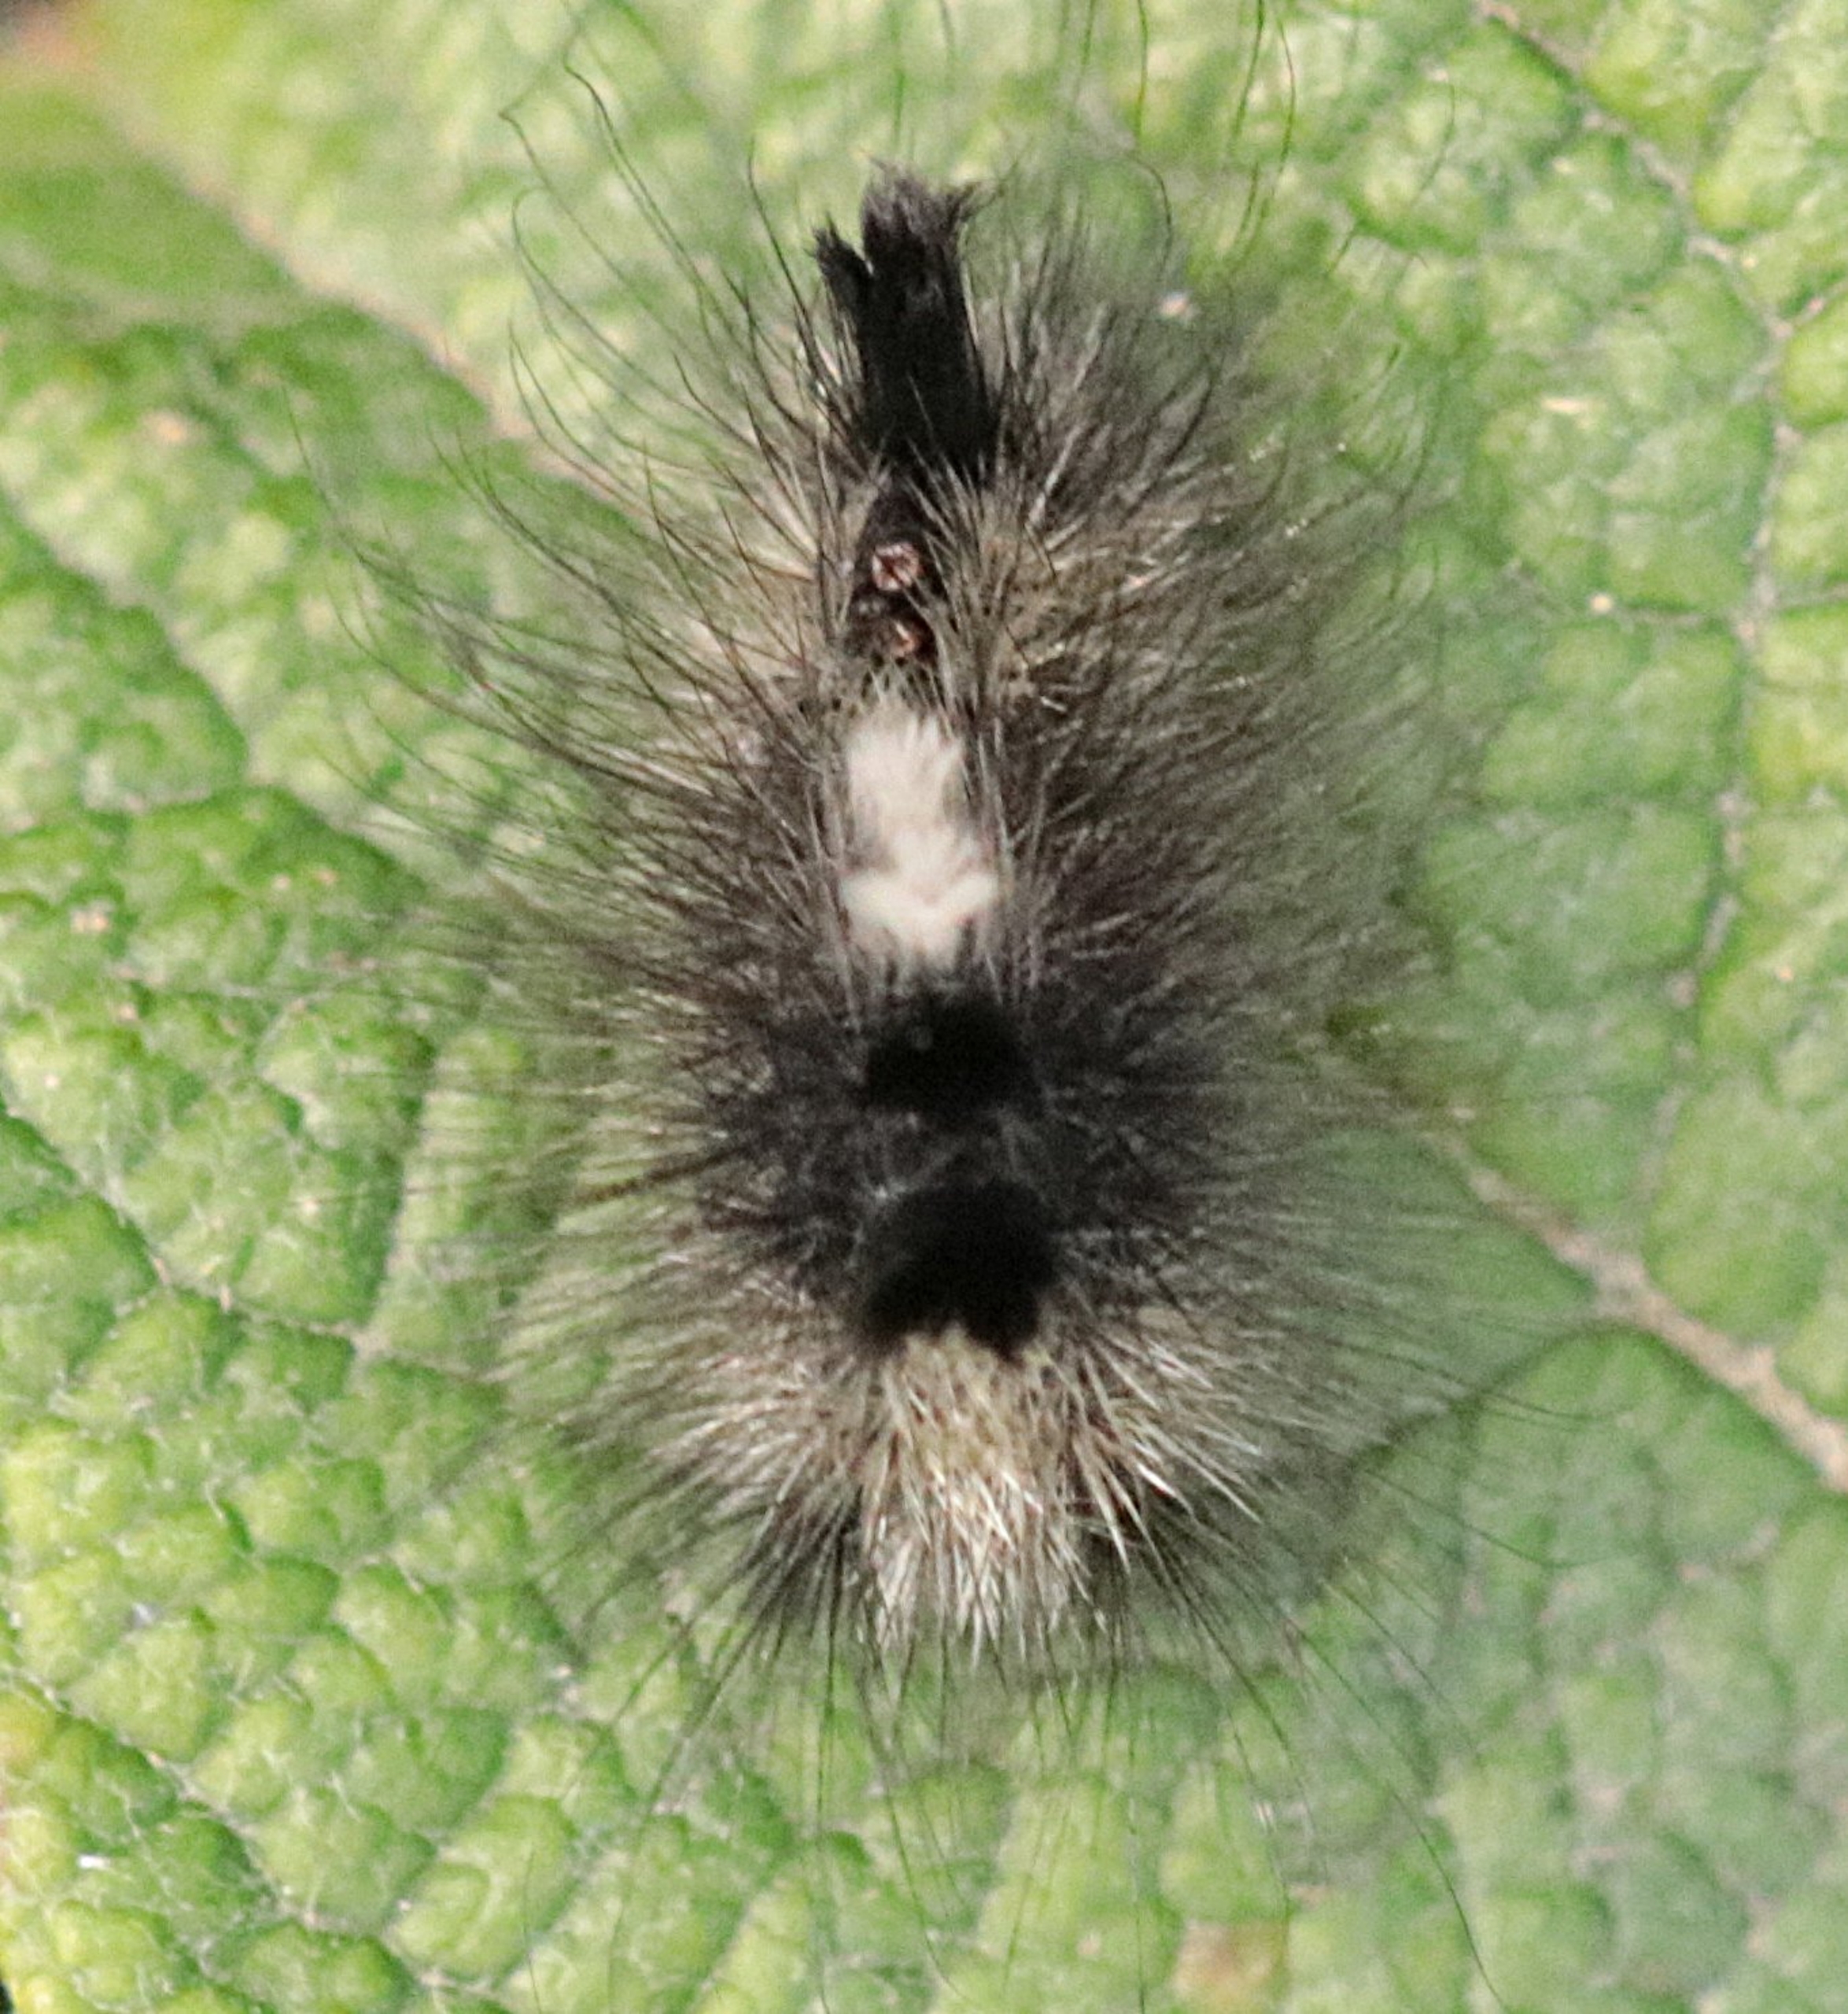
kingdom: Animalia
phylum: Arthropoda
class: Insecta
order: Lepidoptera
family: Erebidae
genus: Calliteara
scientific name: Calliteara Dicallomera fascelina
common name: Hedenonne
